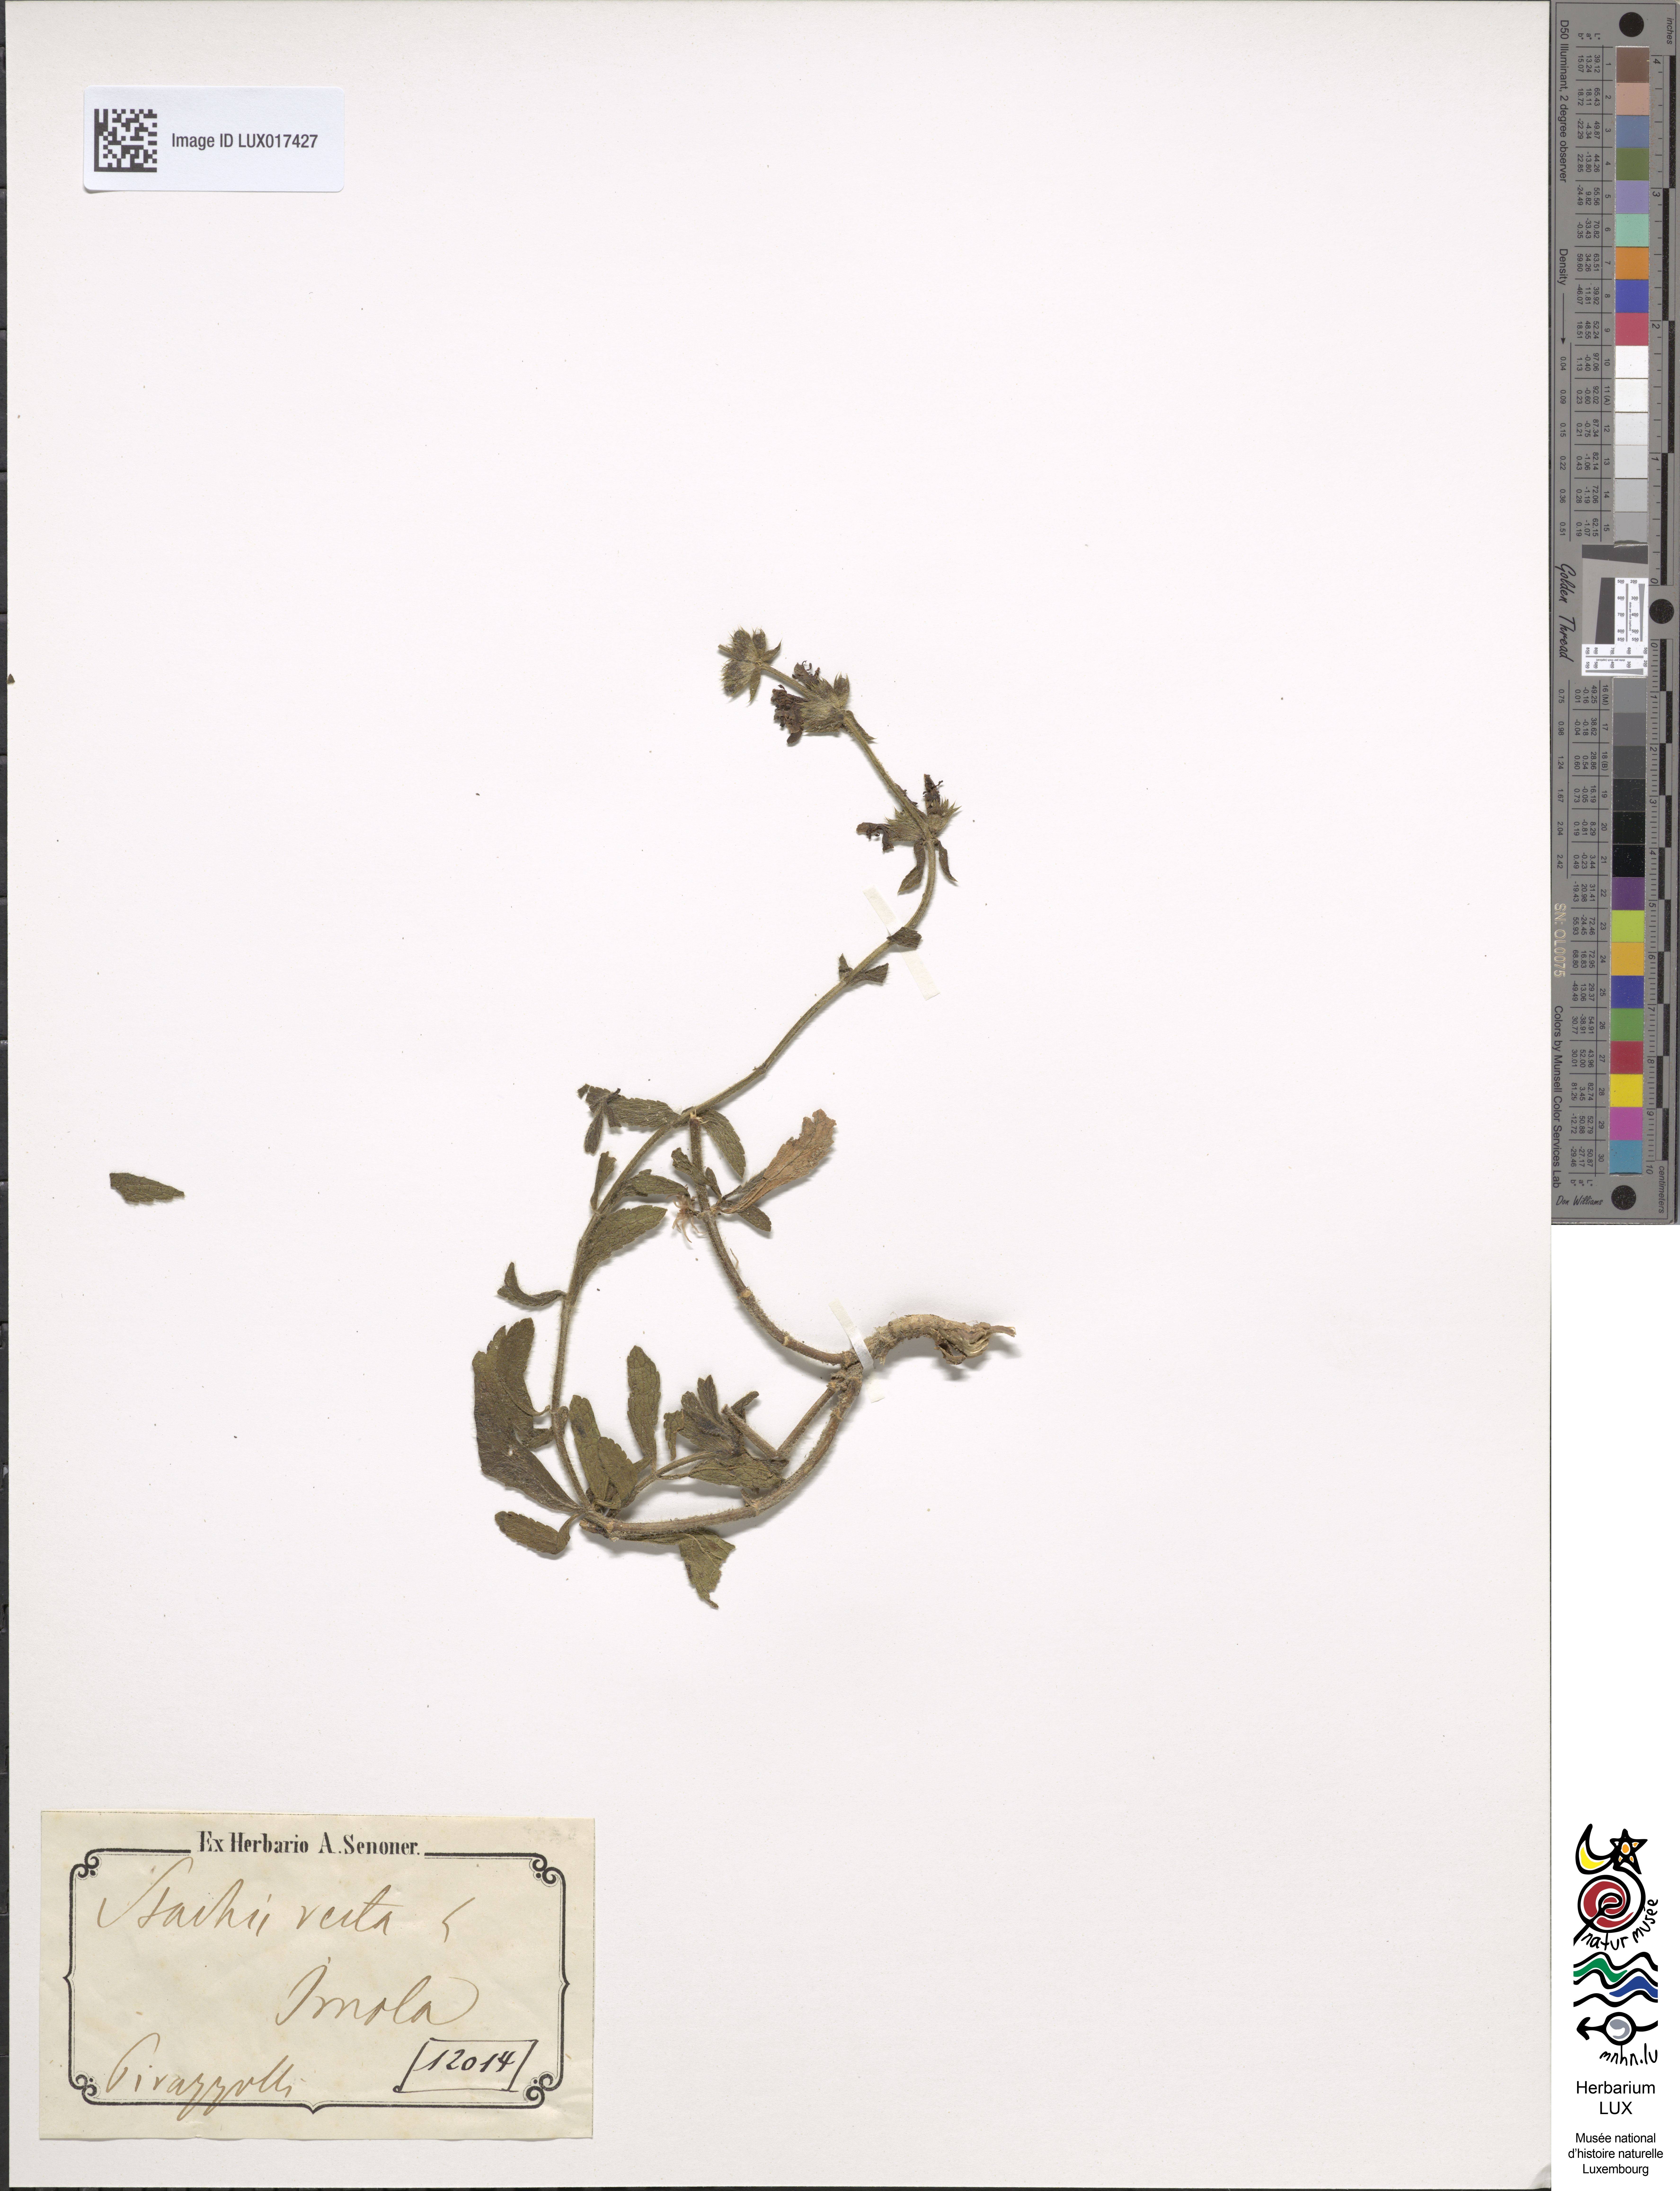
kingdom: Plantae
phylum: Tracheophyta
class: Magnoliopsida
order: Lamiales
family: Lamiaceae
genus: Stachys
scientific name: Stachys recta
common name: Perennial yellow-woundwort
